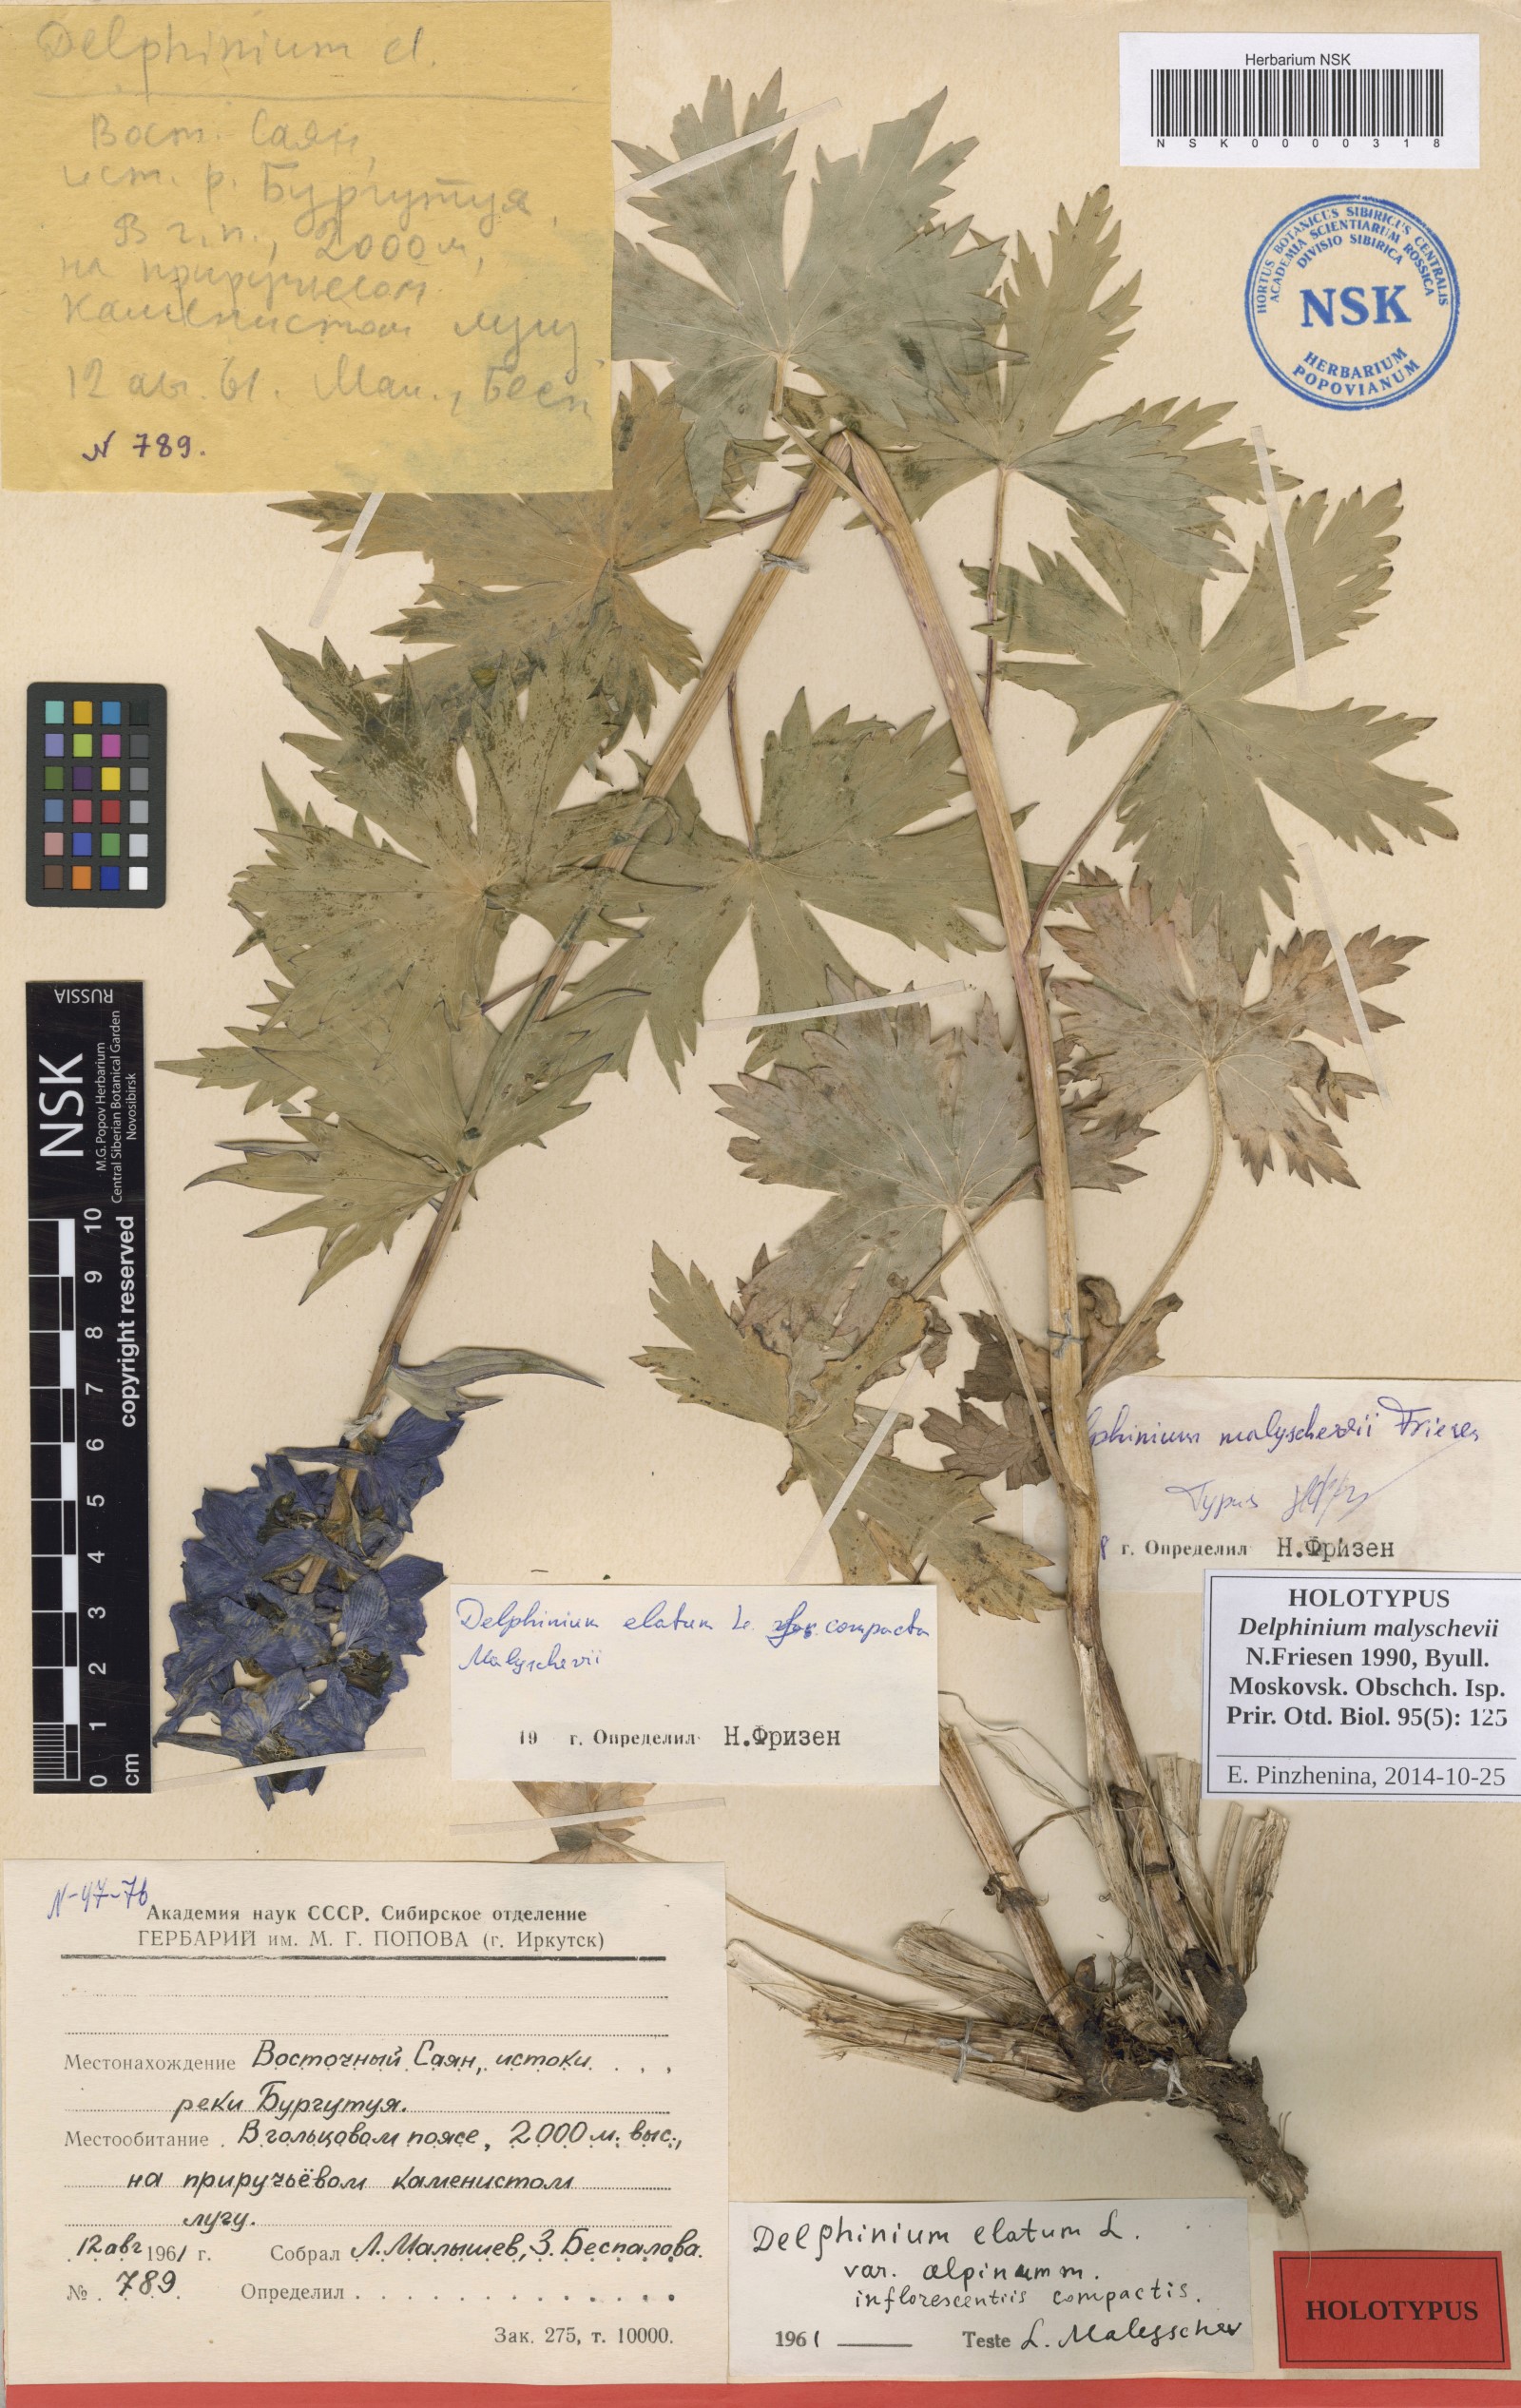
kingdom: Plantae
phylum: Tracheophyta
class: Magnoliopsida
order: Ranunculales
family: Ranunculaceae
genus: Delphinium
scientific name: Delphinium malyschevii
